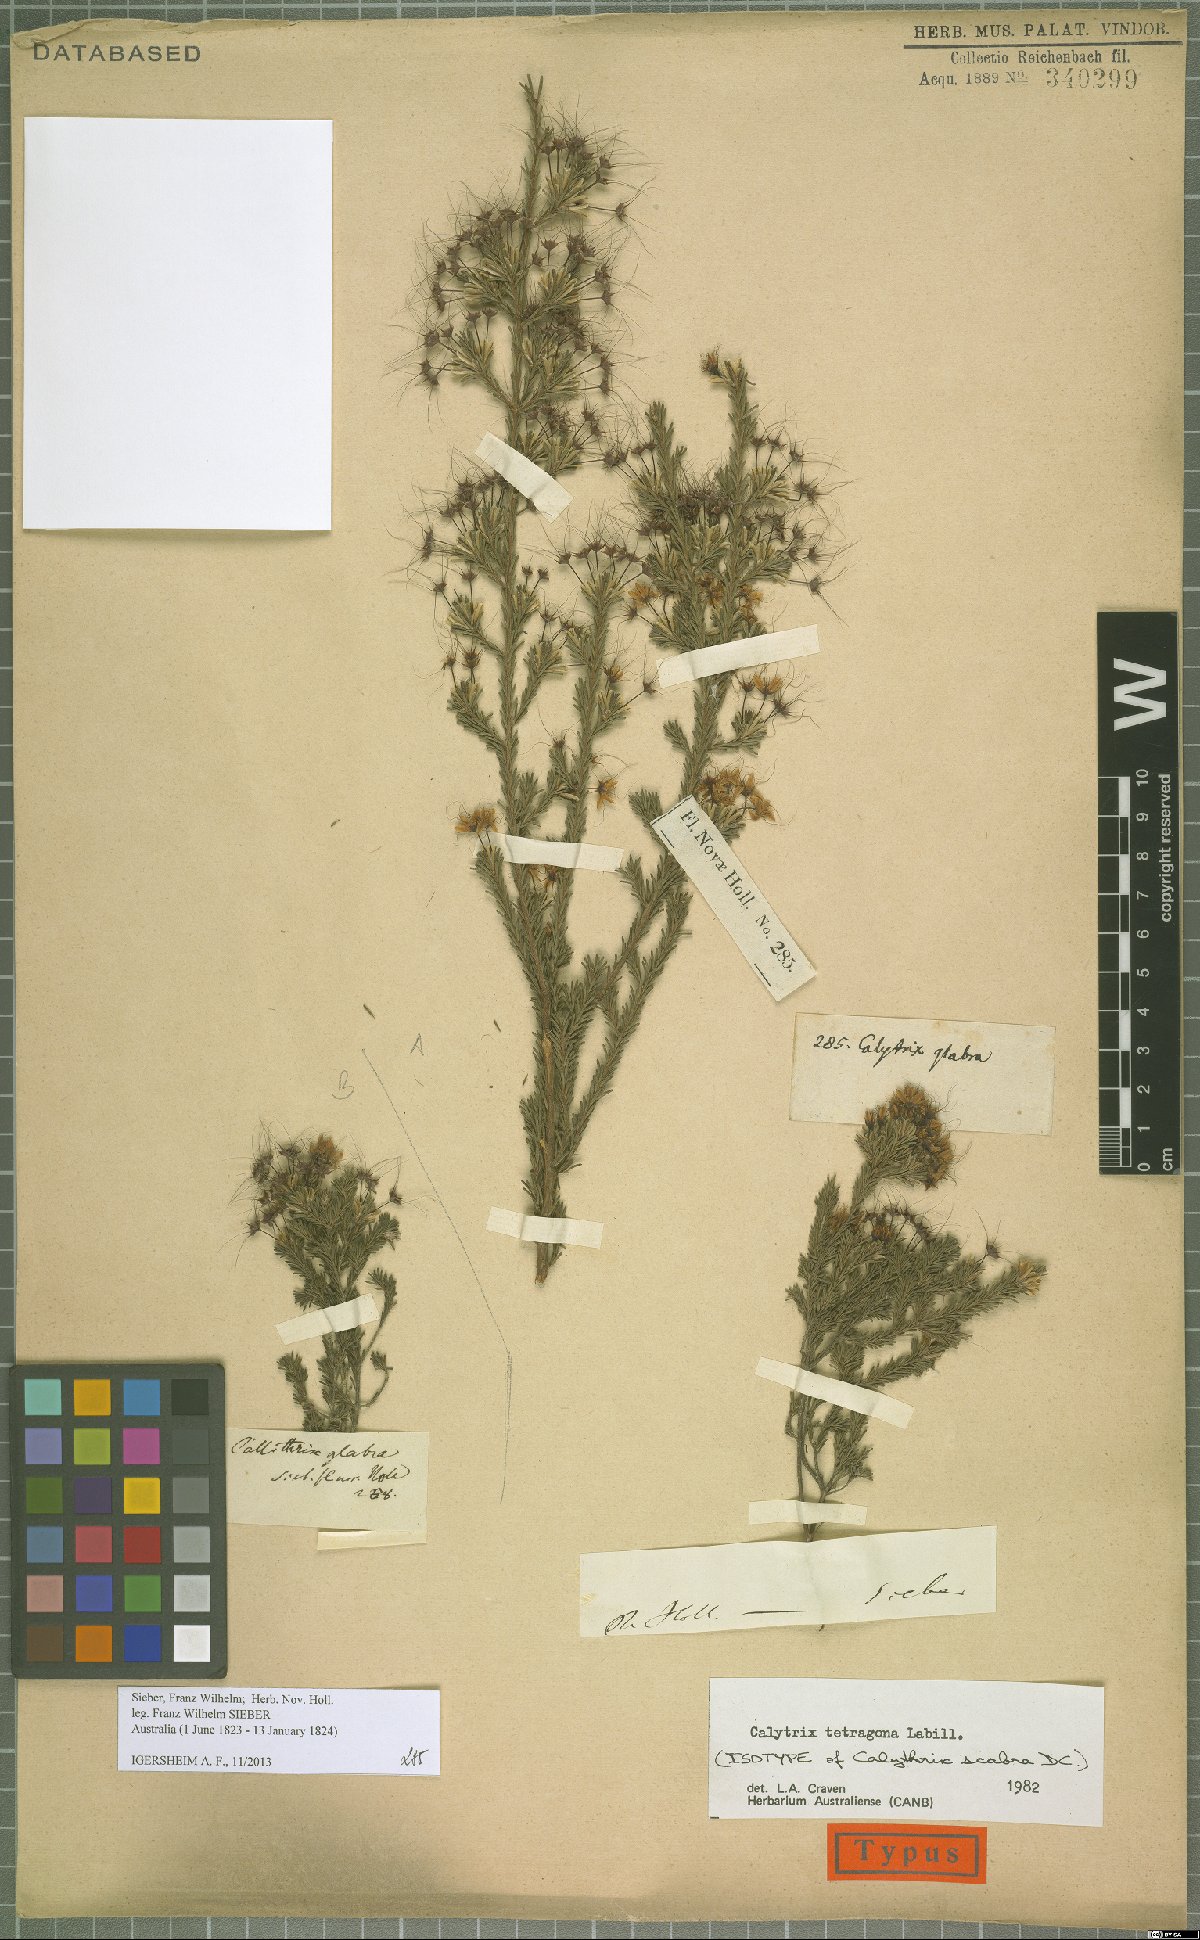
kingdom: Plantae
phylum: Tracheophyta
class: Magnoliopsida
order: Myrtales
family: Myrtaceae
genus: Calytrix
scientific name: Calytrix tetragona
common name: Common fringe myrtle
